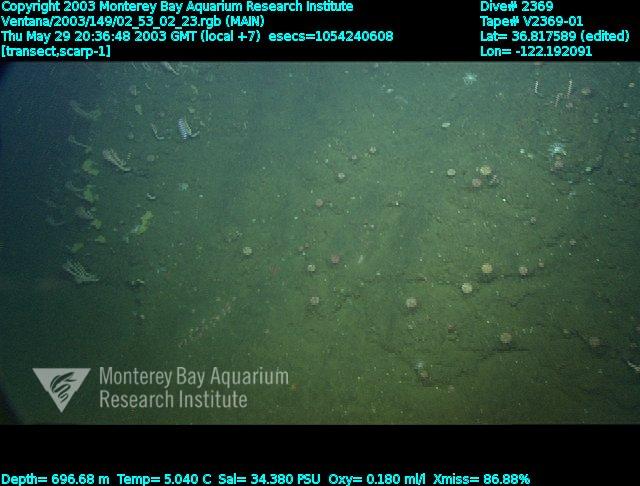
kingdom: Animalia
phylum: Porifera
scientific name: Porifera
